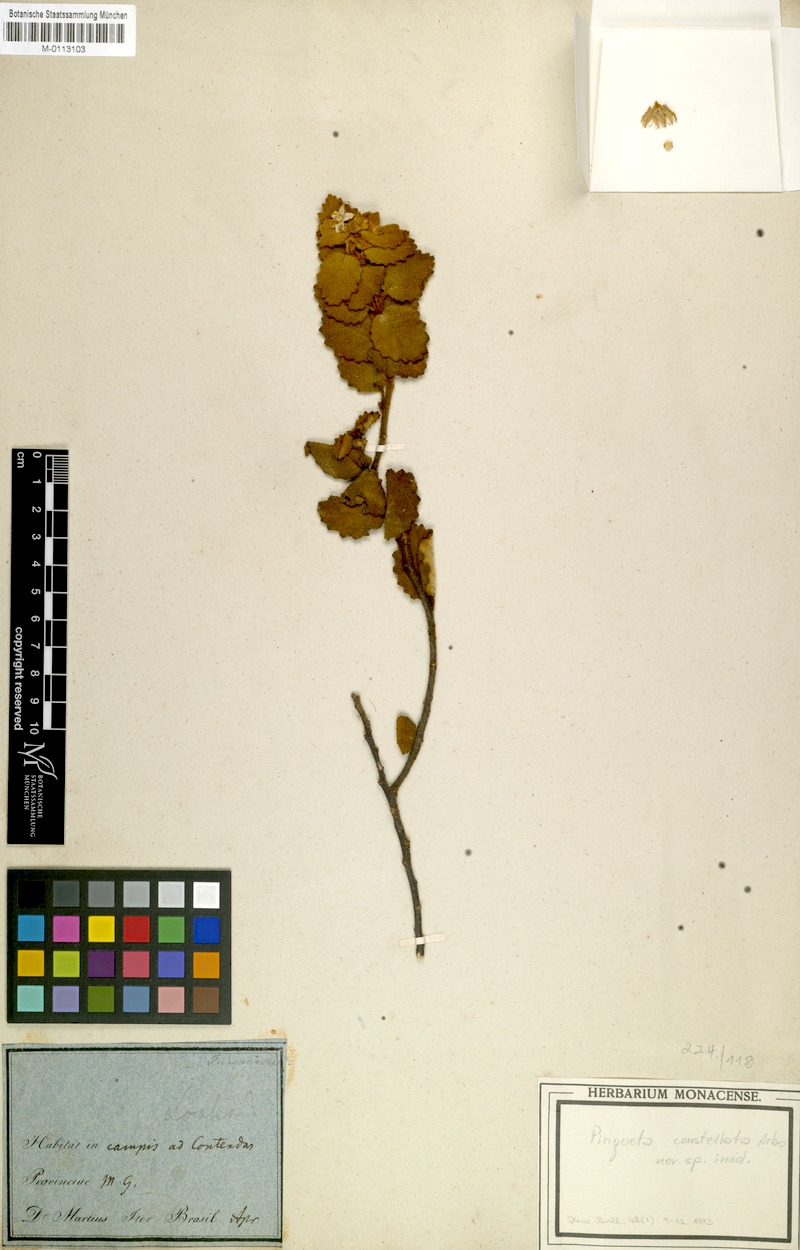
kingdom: Plantae
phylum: Tracheophyta
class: Magnoliopsida
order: Malpighiales
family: Turneraceae
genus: Piriqueta
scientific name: Piriqueta constellata
